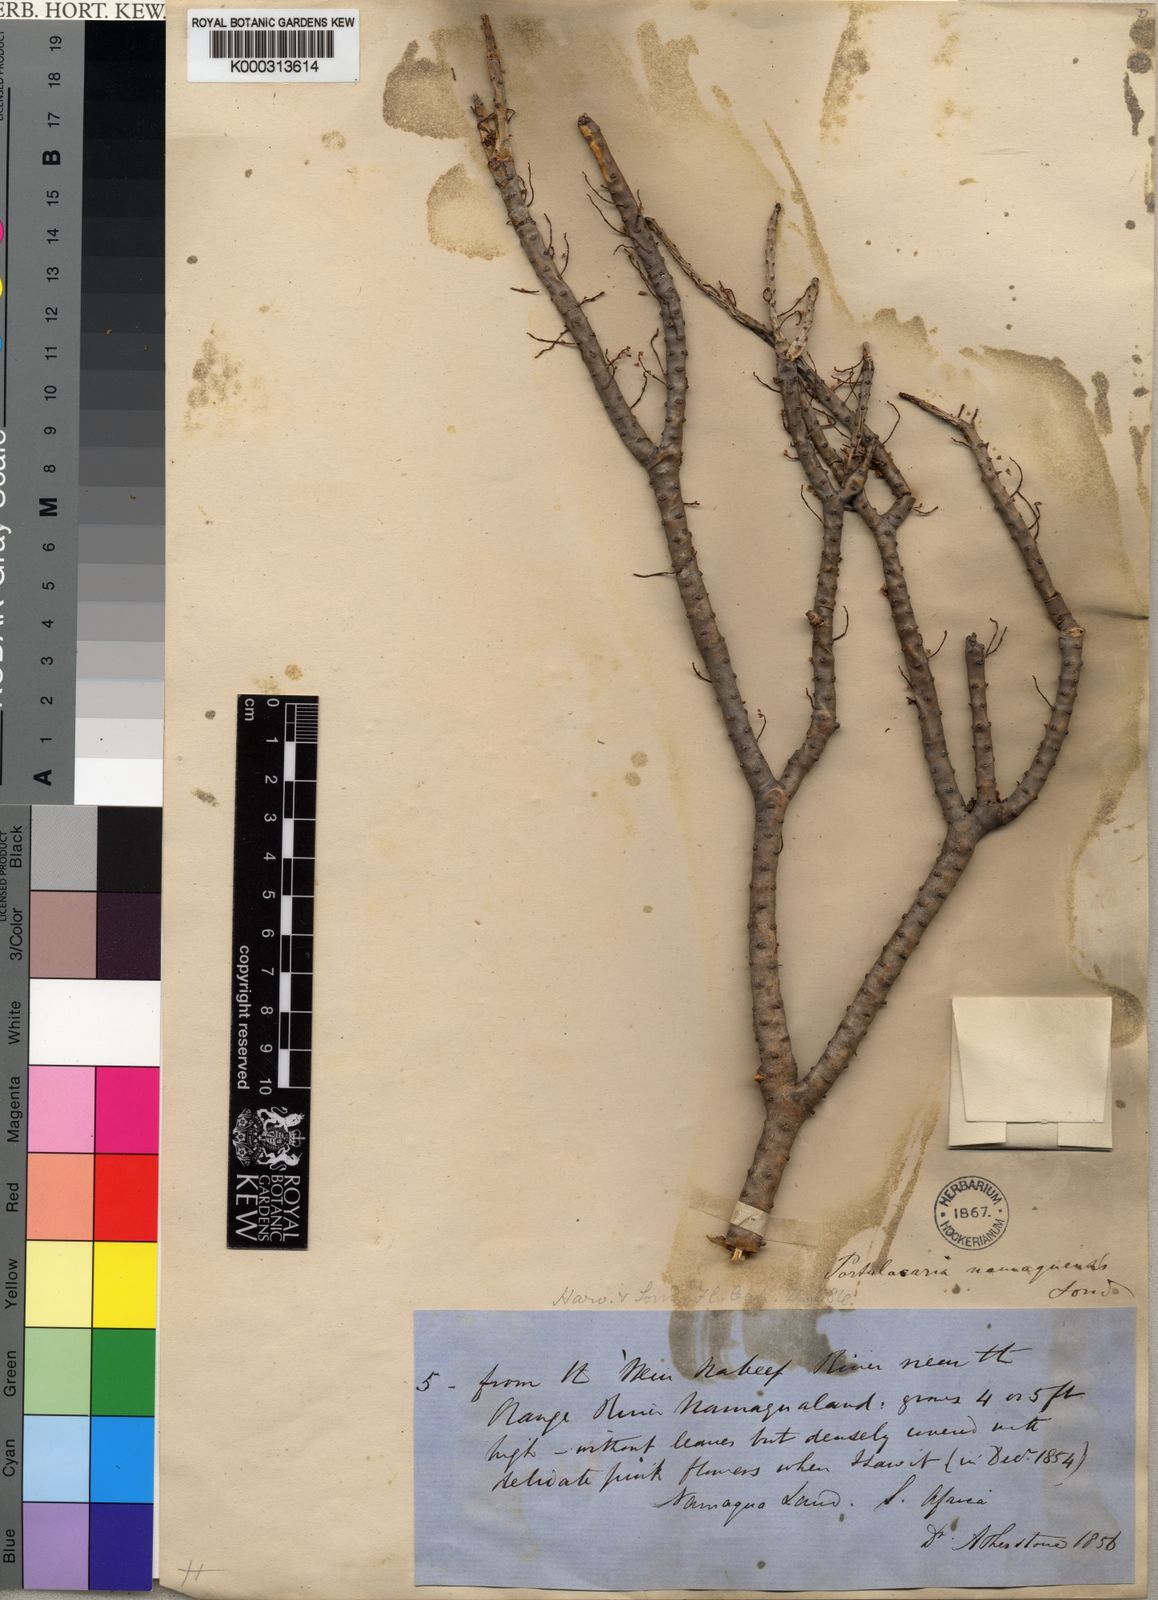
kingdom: Plantae
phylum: Tracheophyta
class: Magnoliopsida
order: Caryophyllales
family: Didiereaceae
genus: Portulacaria
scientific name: Portulacaria namaquensis
